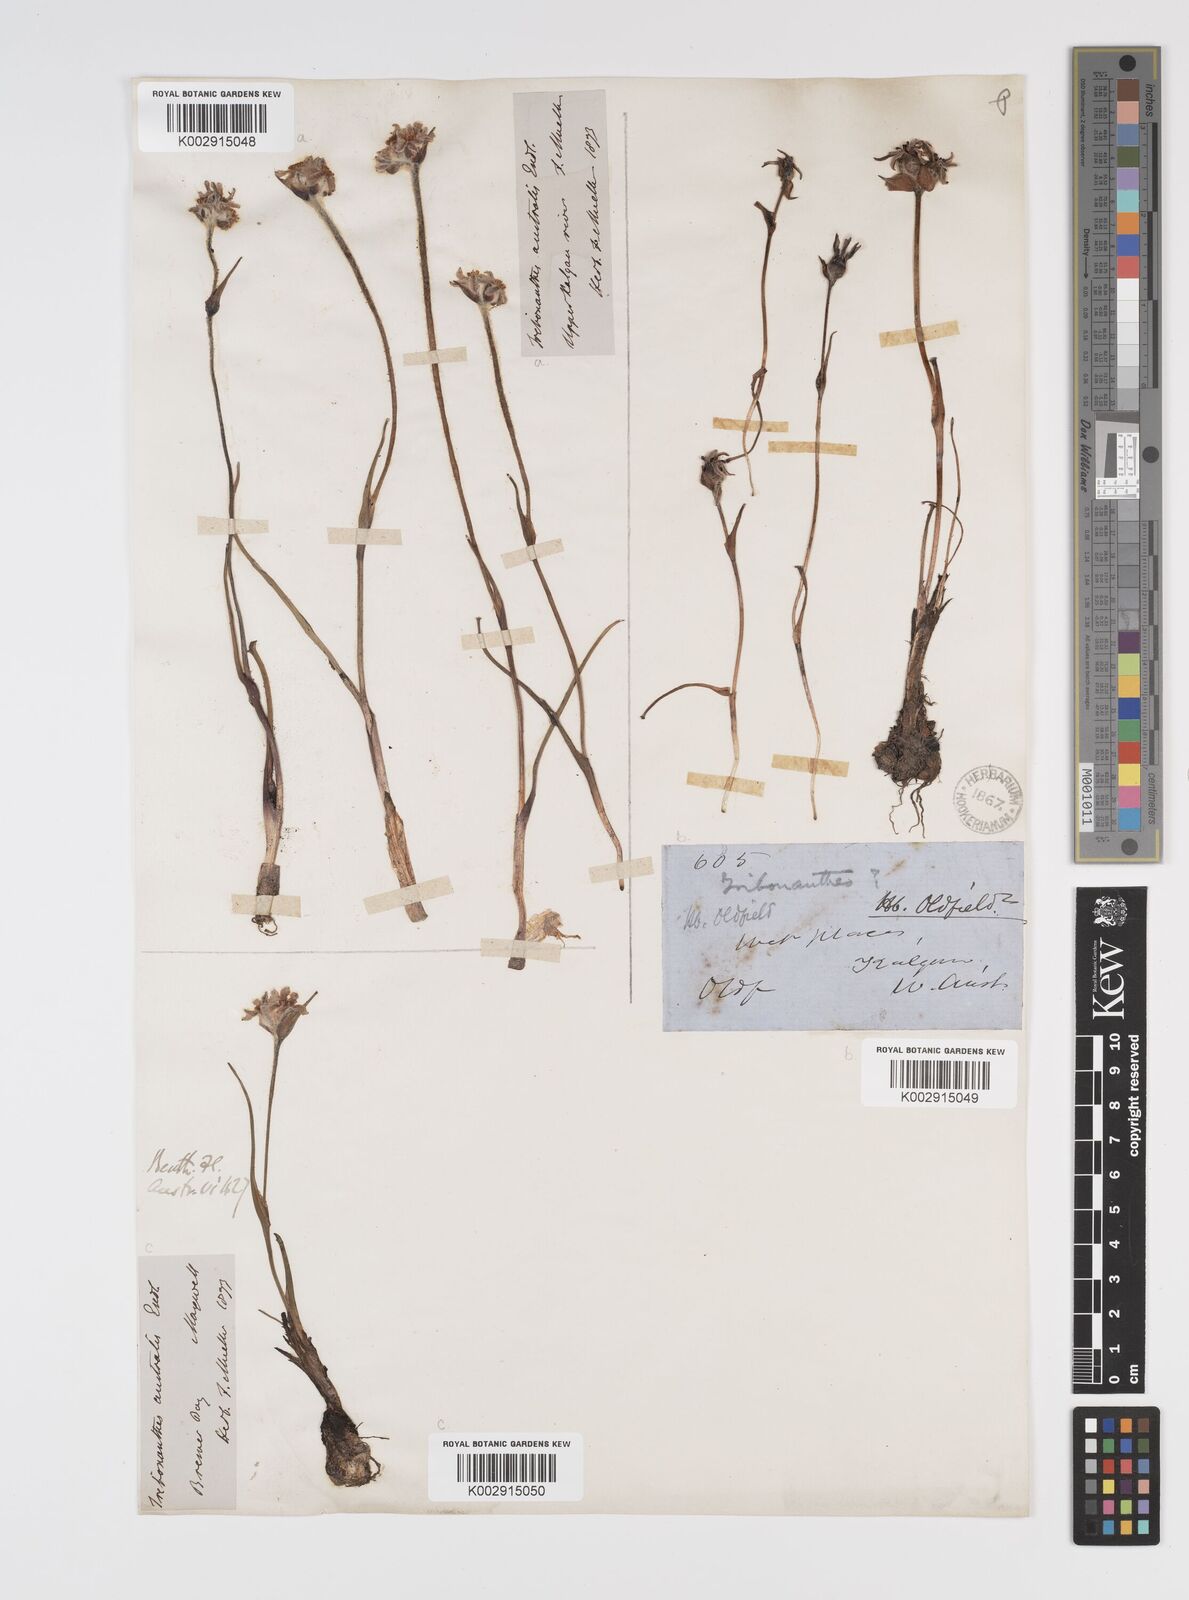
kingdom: Plantae
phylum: Tracheophyta
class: Liliopsida
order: Commelinales
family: Haemodoraceae
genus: Tribonanthes
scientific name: Tribonanthes australis
